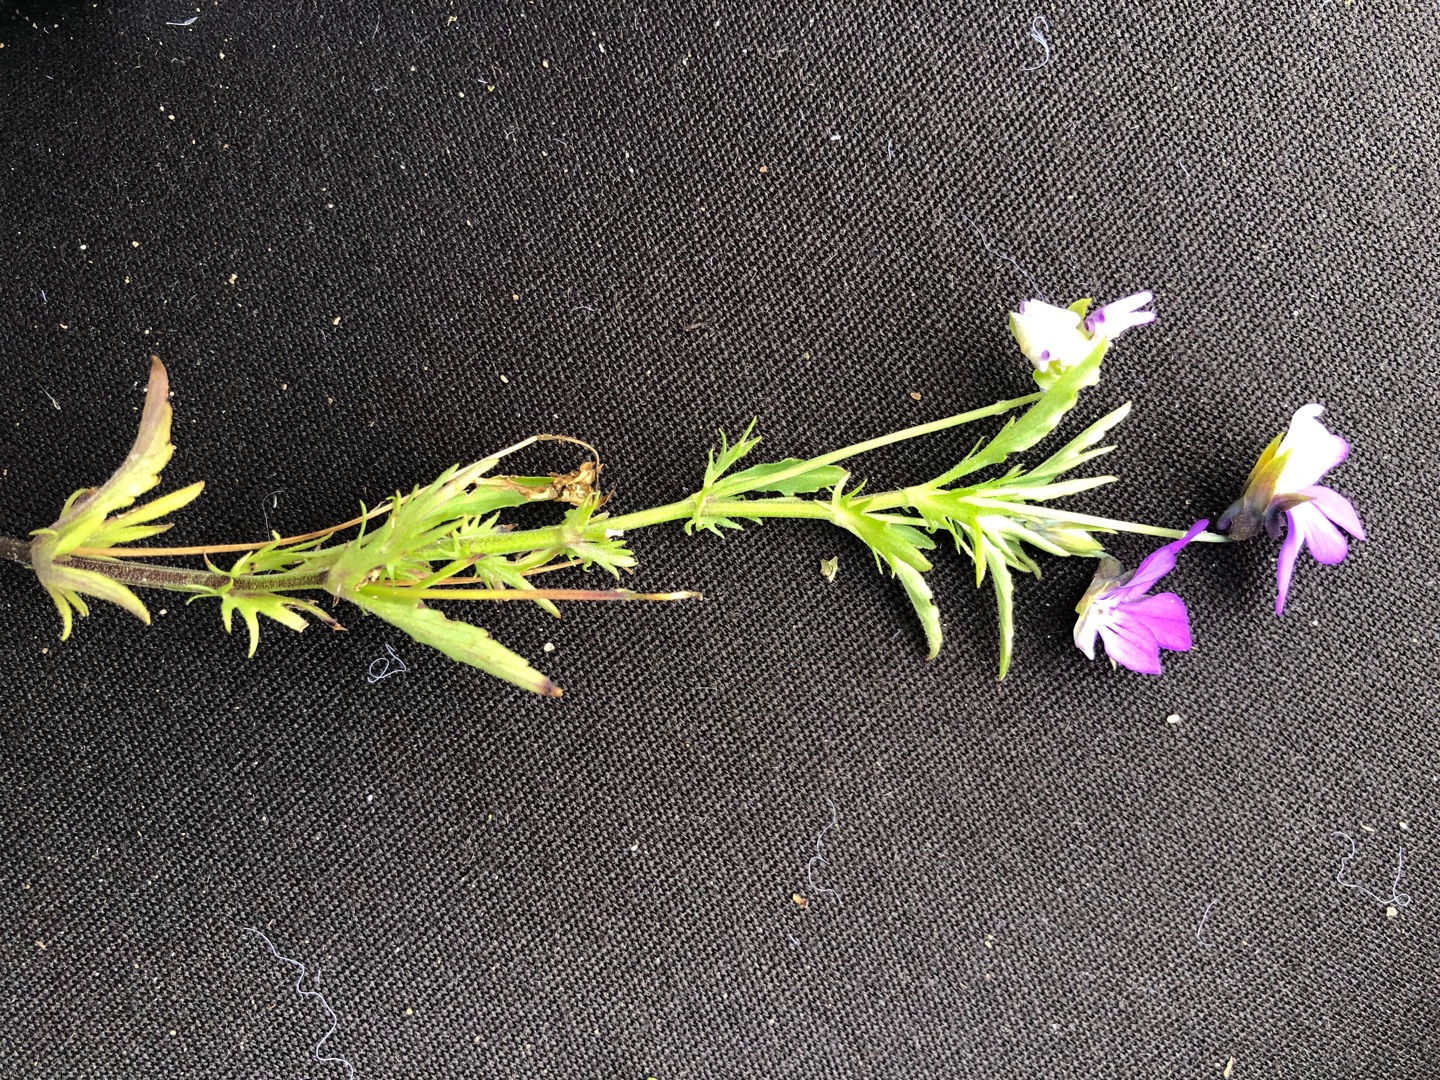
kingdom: Plantae
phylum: Tracheophyta
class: Magnoliopsida
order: Malpighiales
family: Violaceae
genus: Viola
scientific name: Viola tricolor
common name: Stedmoderblomst
